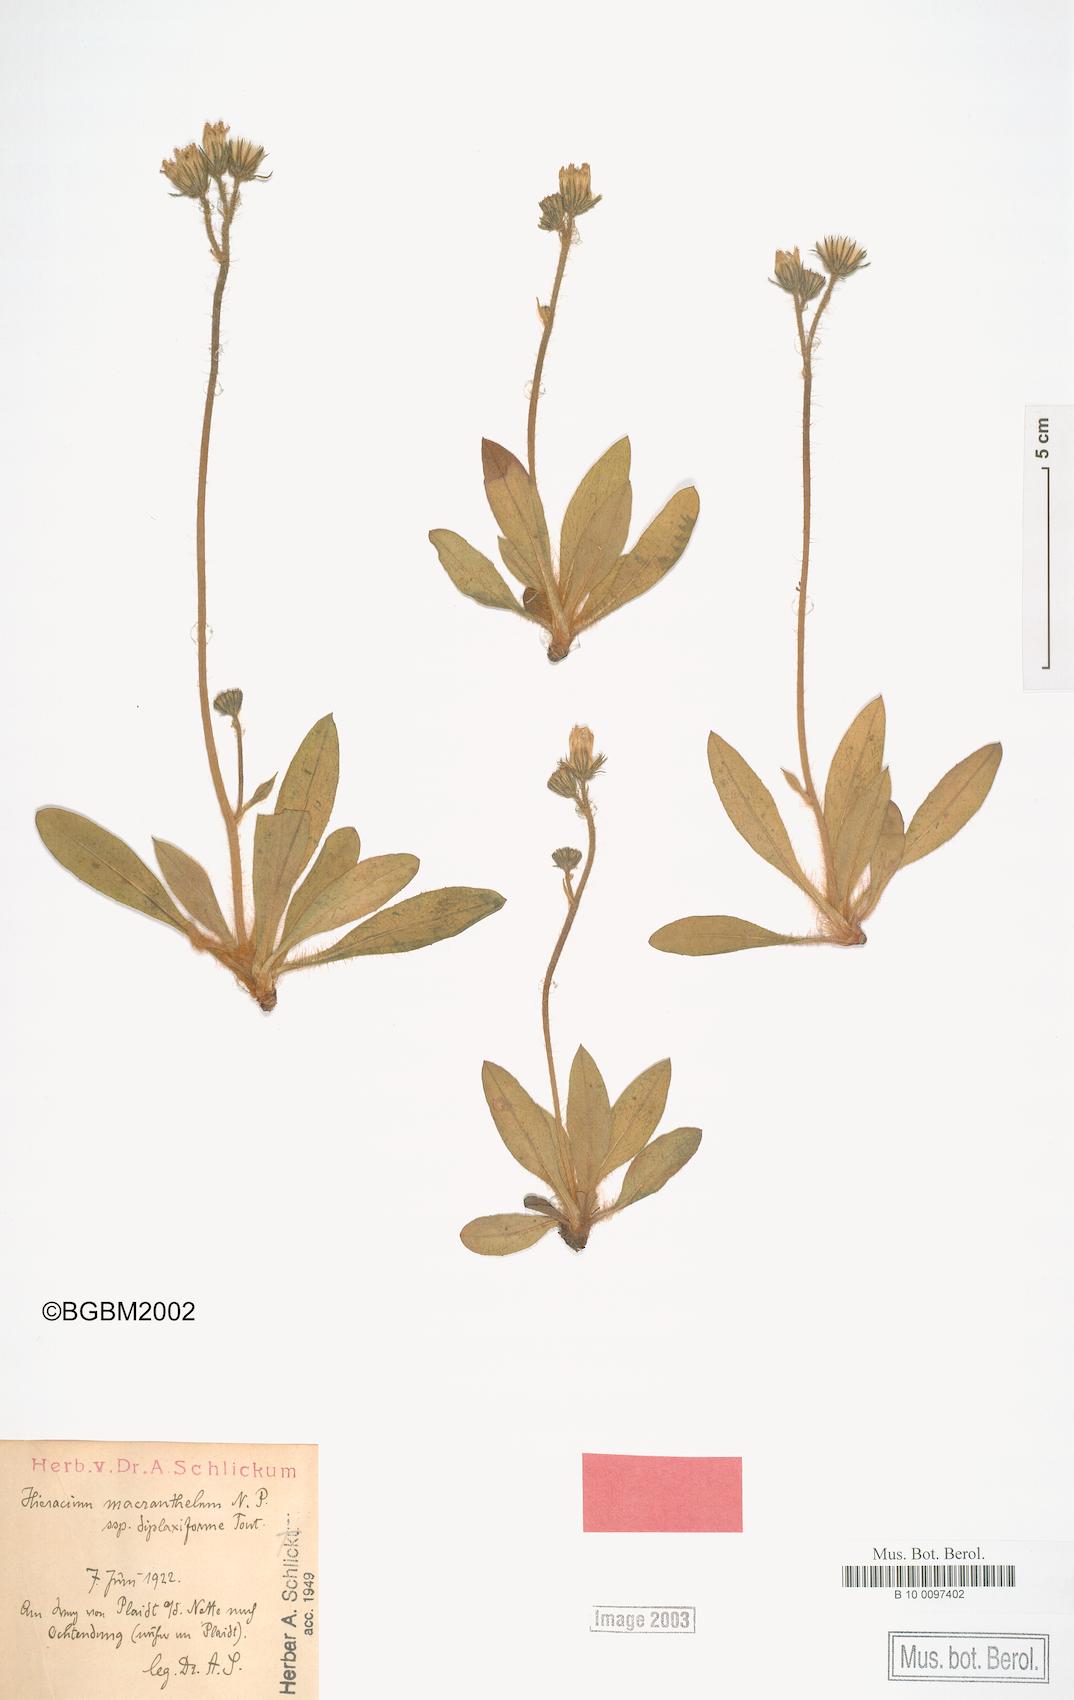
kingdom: Plantae
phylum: Tracheophyta
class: Magnoliopsida
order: Asterales
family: Asteraceae
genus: Pilosella
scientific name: Pilosella macranthela
